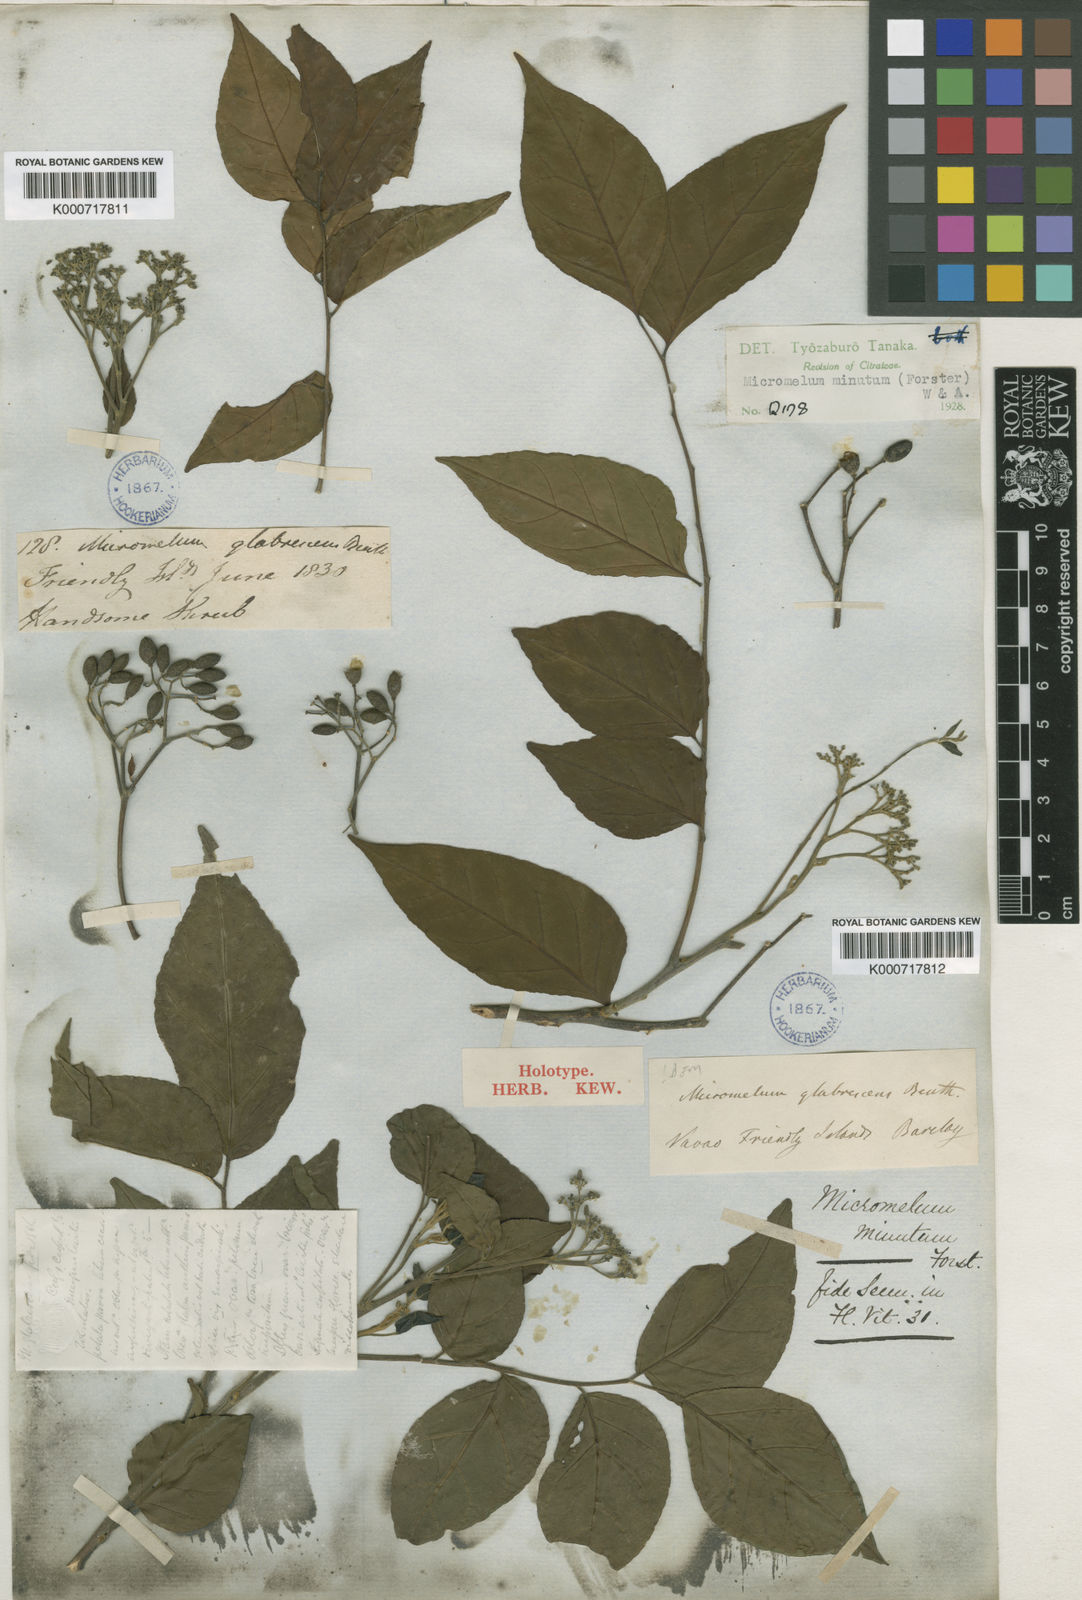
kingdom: Plantae
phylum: Tracheophyta
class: Magnoliopsida
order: Sapindales
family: Rutaceae
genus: Micromelum
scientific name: Micromelum minutum
